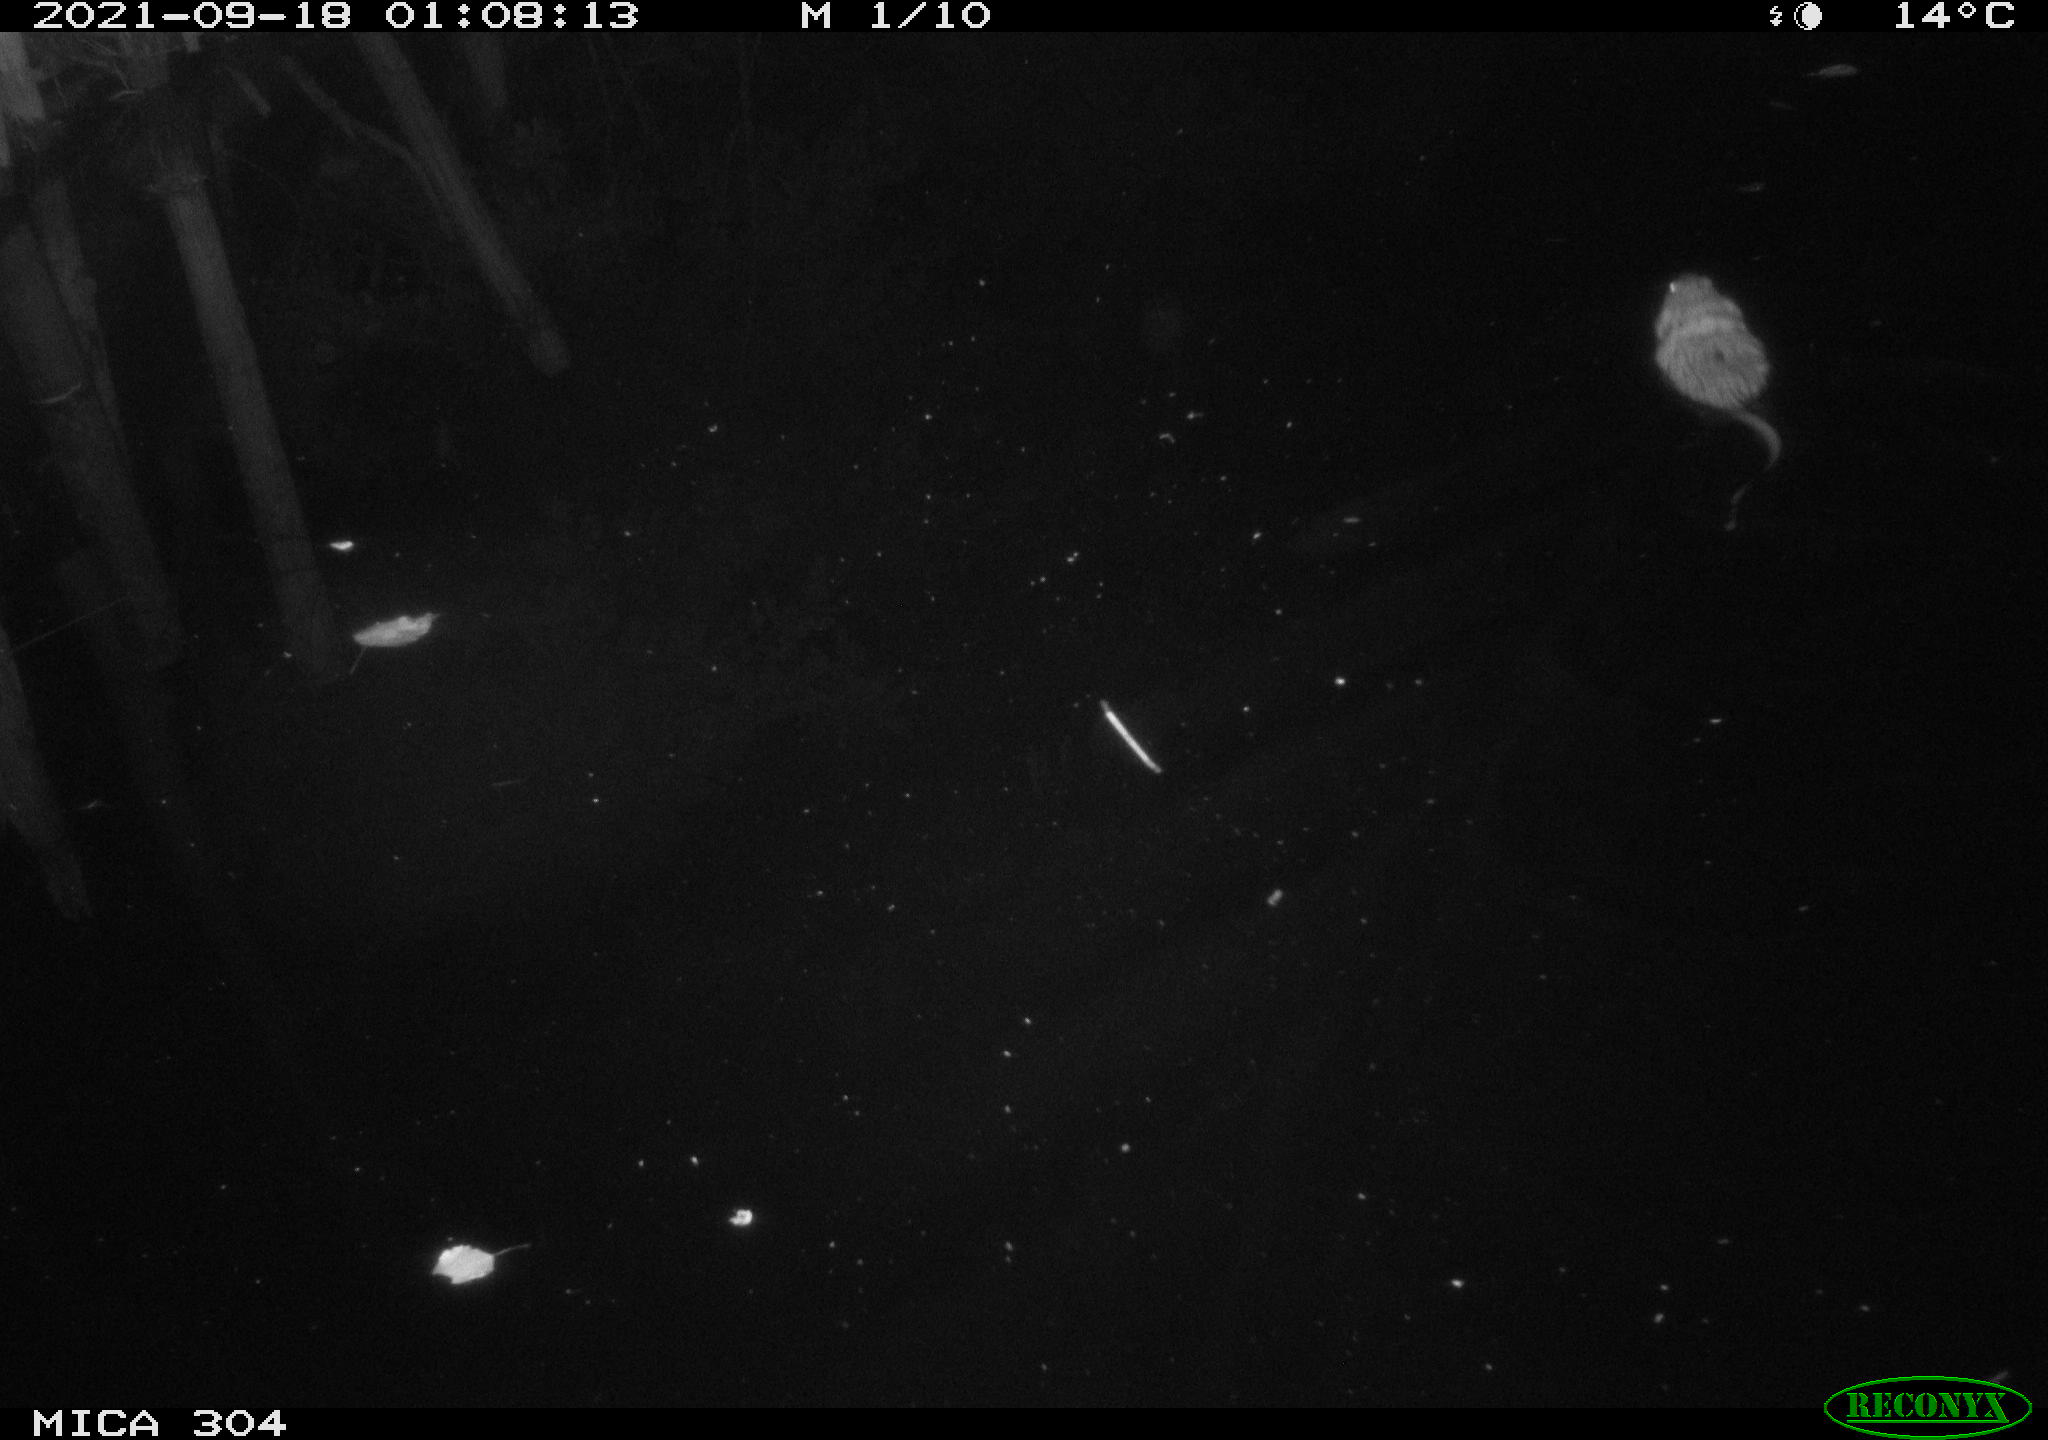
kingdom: Animalia
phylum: Chordata
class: Mammalia
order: Rodentia
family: Cricetidae
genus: Ondatra
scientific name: Ondatra zibethicus
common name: Muskrat
